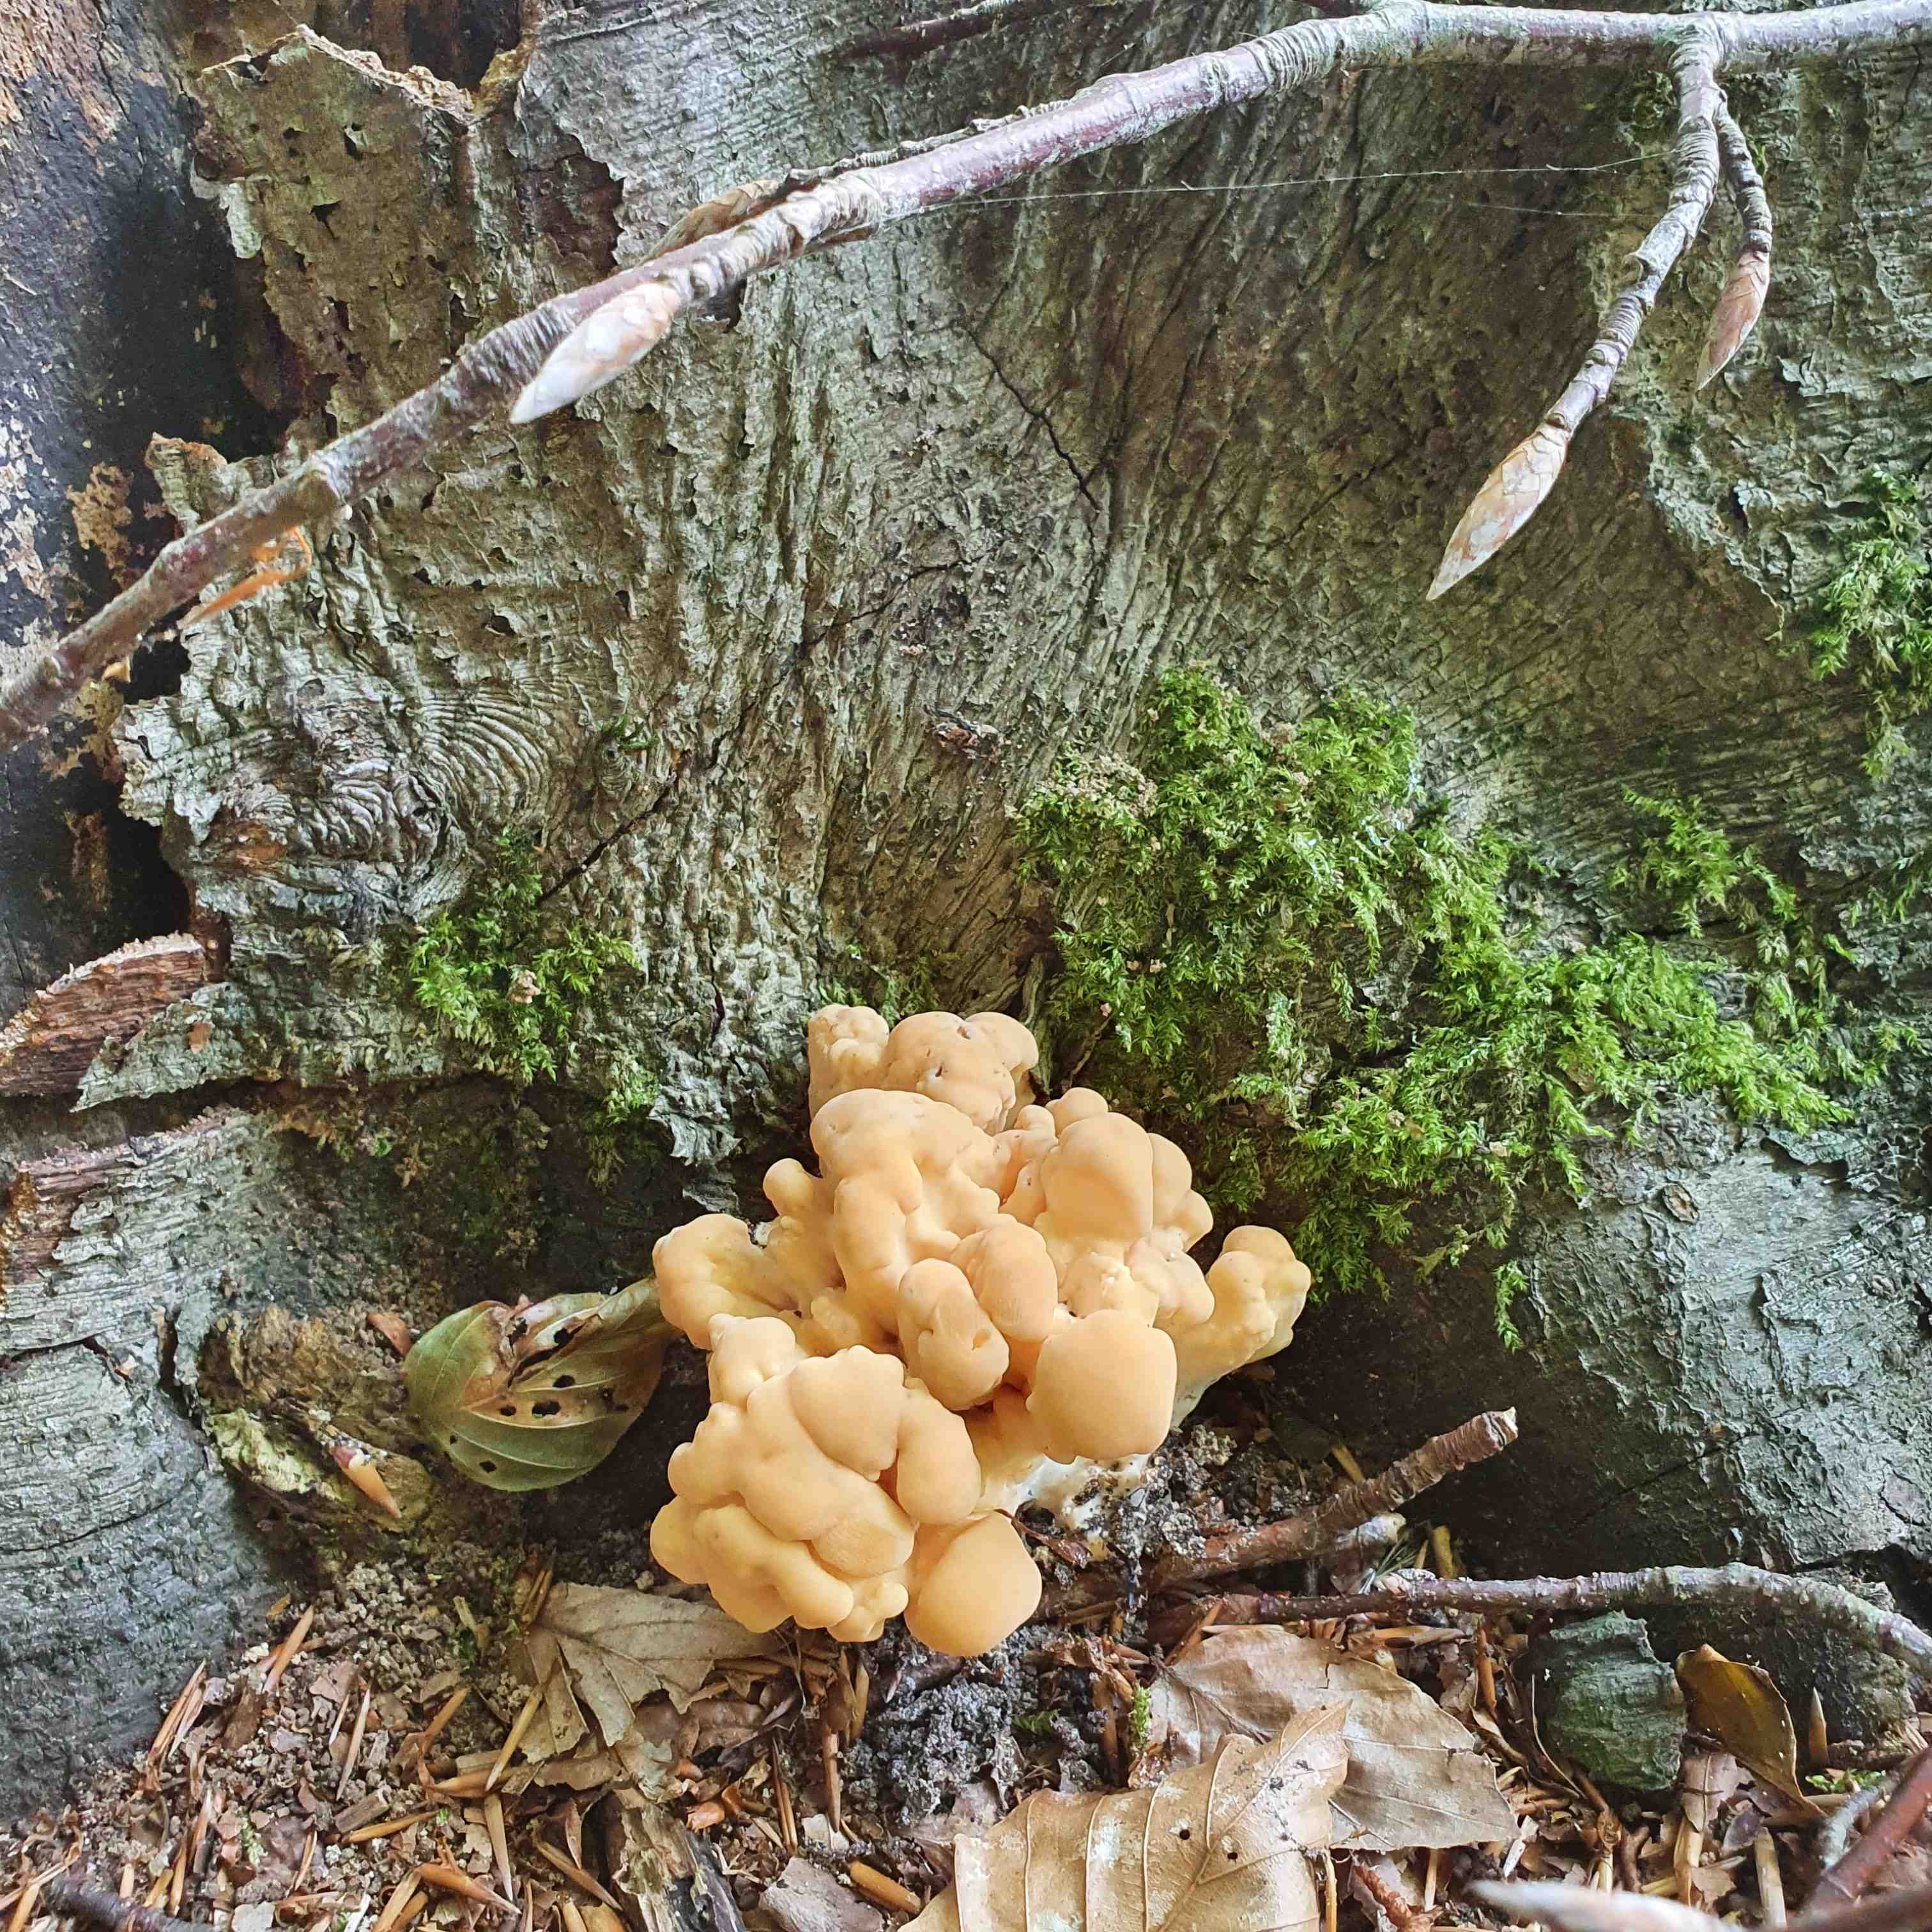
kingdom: Fungi
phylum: Basidiomycota
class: Agaricomycetes
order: Polyporales
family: Meripilaceae
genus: Meripilus
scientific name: Meripilus giganteus
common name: kæmpeporesvamp
